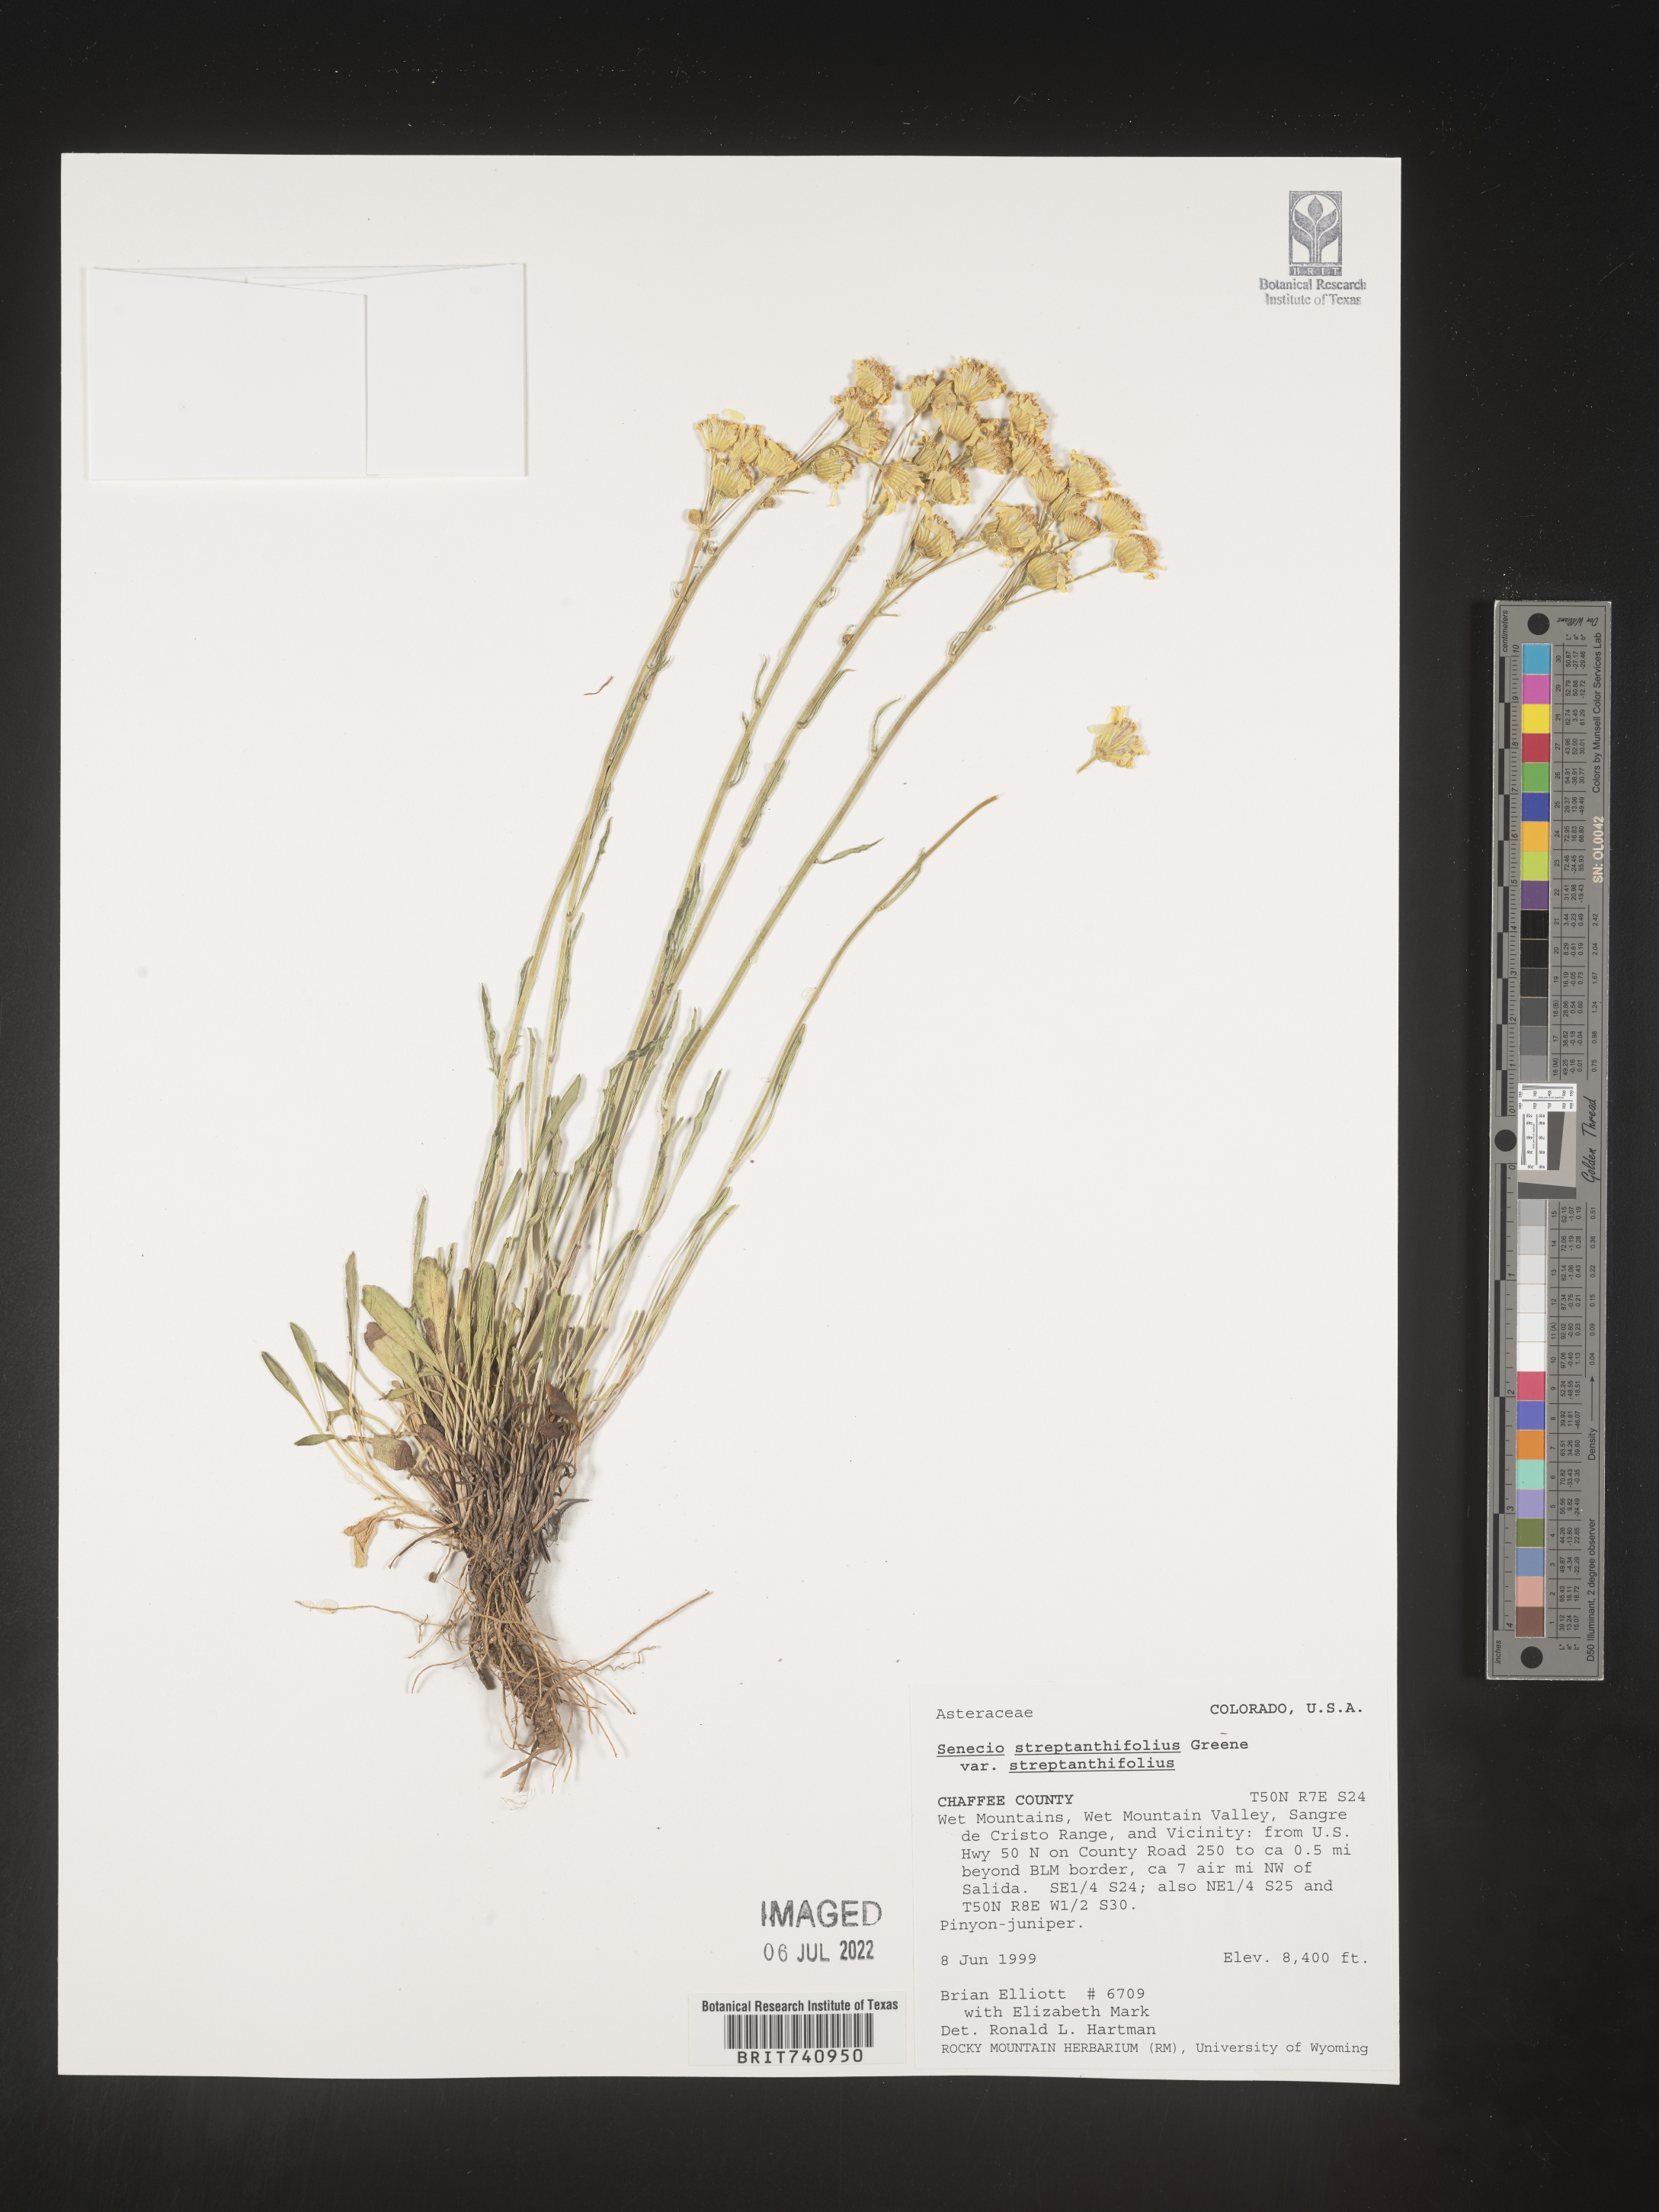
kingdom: Plantae
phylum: Tracheophyta
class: Magnoliopsida
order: Asterales
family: Asteraceae
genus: Packera
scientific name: Packera streptanthifolia
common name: Rocky mountain butterweed
